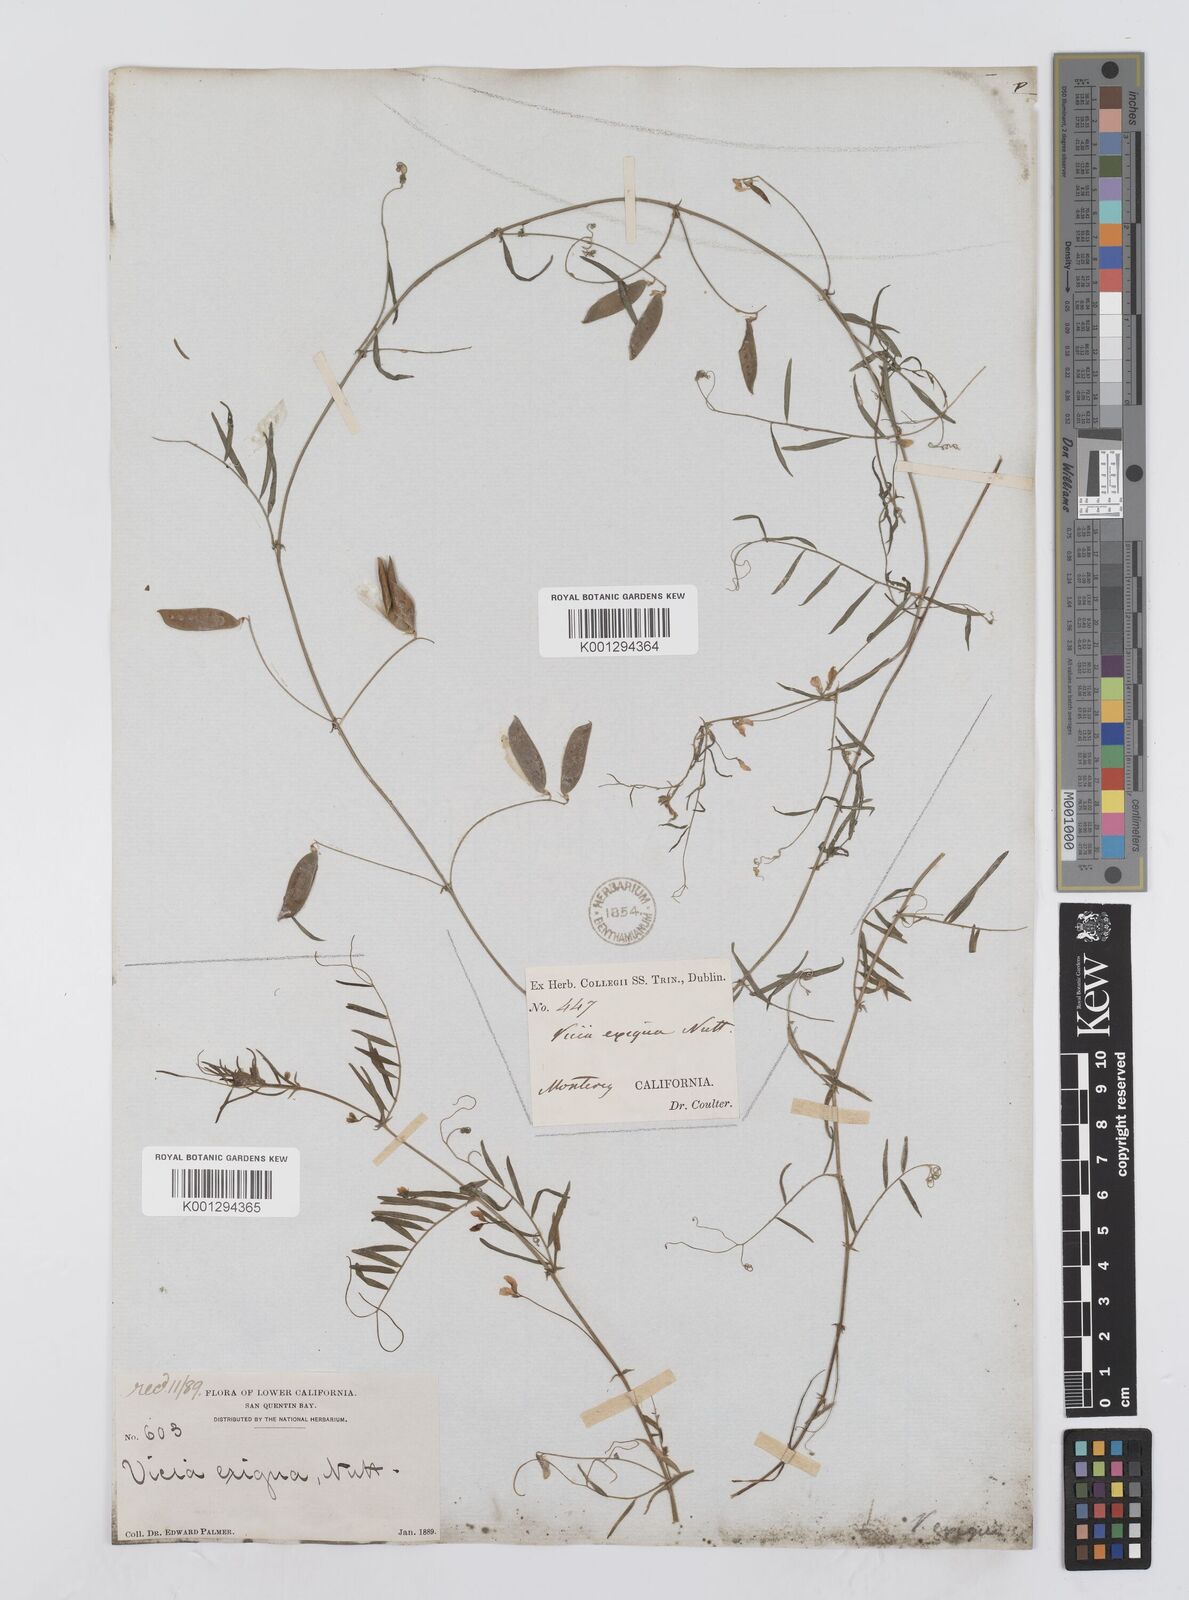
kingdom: Plantae
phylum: Tracheophyta
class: Magnoliopsida
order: Fabales
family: Fabaceae
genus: Vicia
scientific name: Vicia ludoviciana
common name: Louisiana vetch
